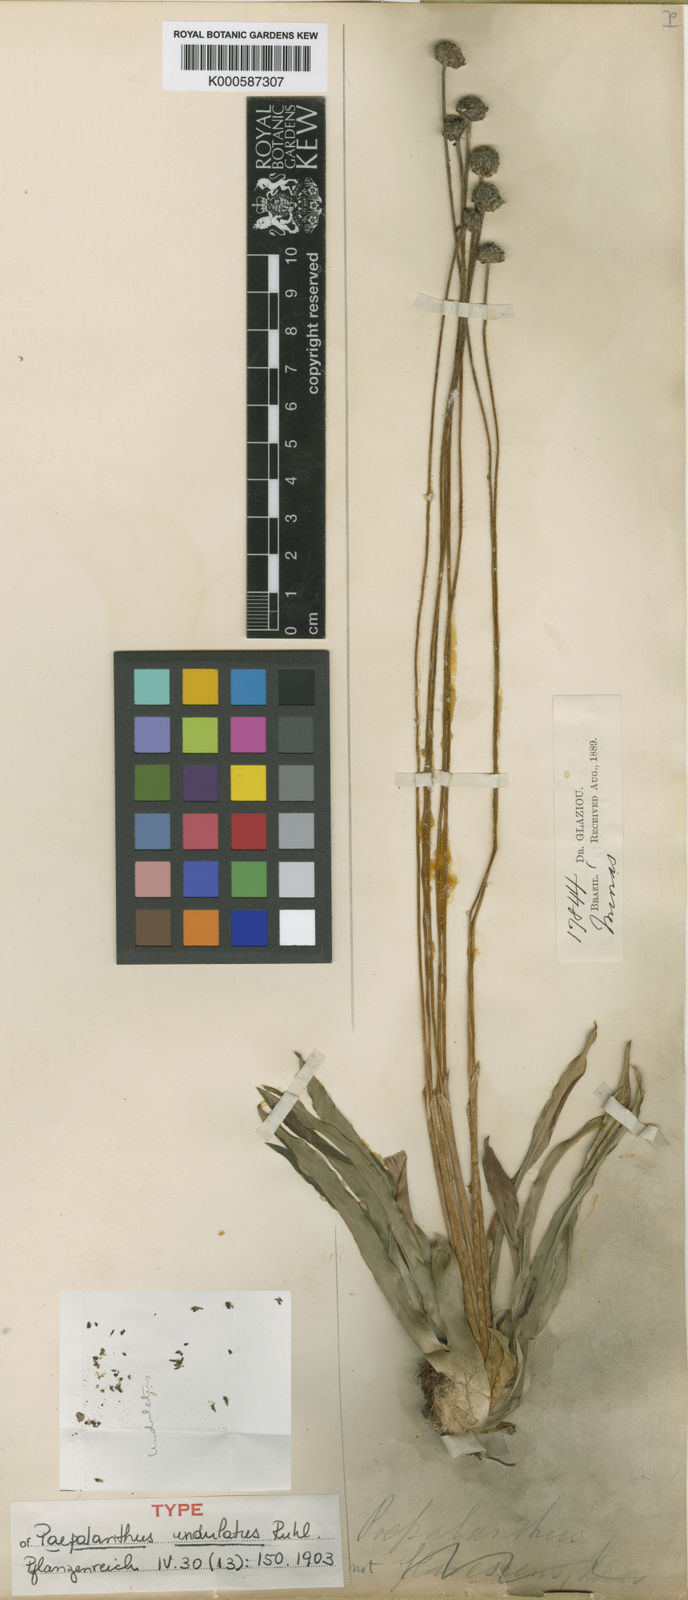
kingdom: Plantae
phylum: Tracheophyta
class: Liliopsida
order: Poales
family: Eriocaulaceae
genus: Paepalanthus
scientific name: Paepalanthus undulatus
